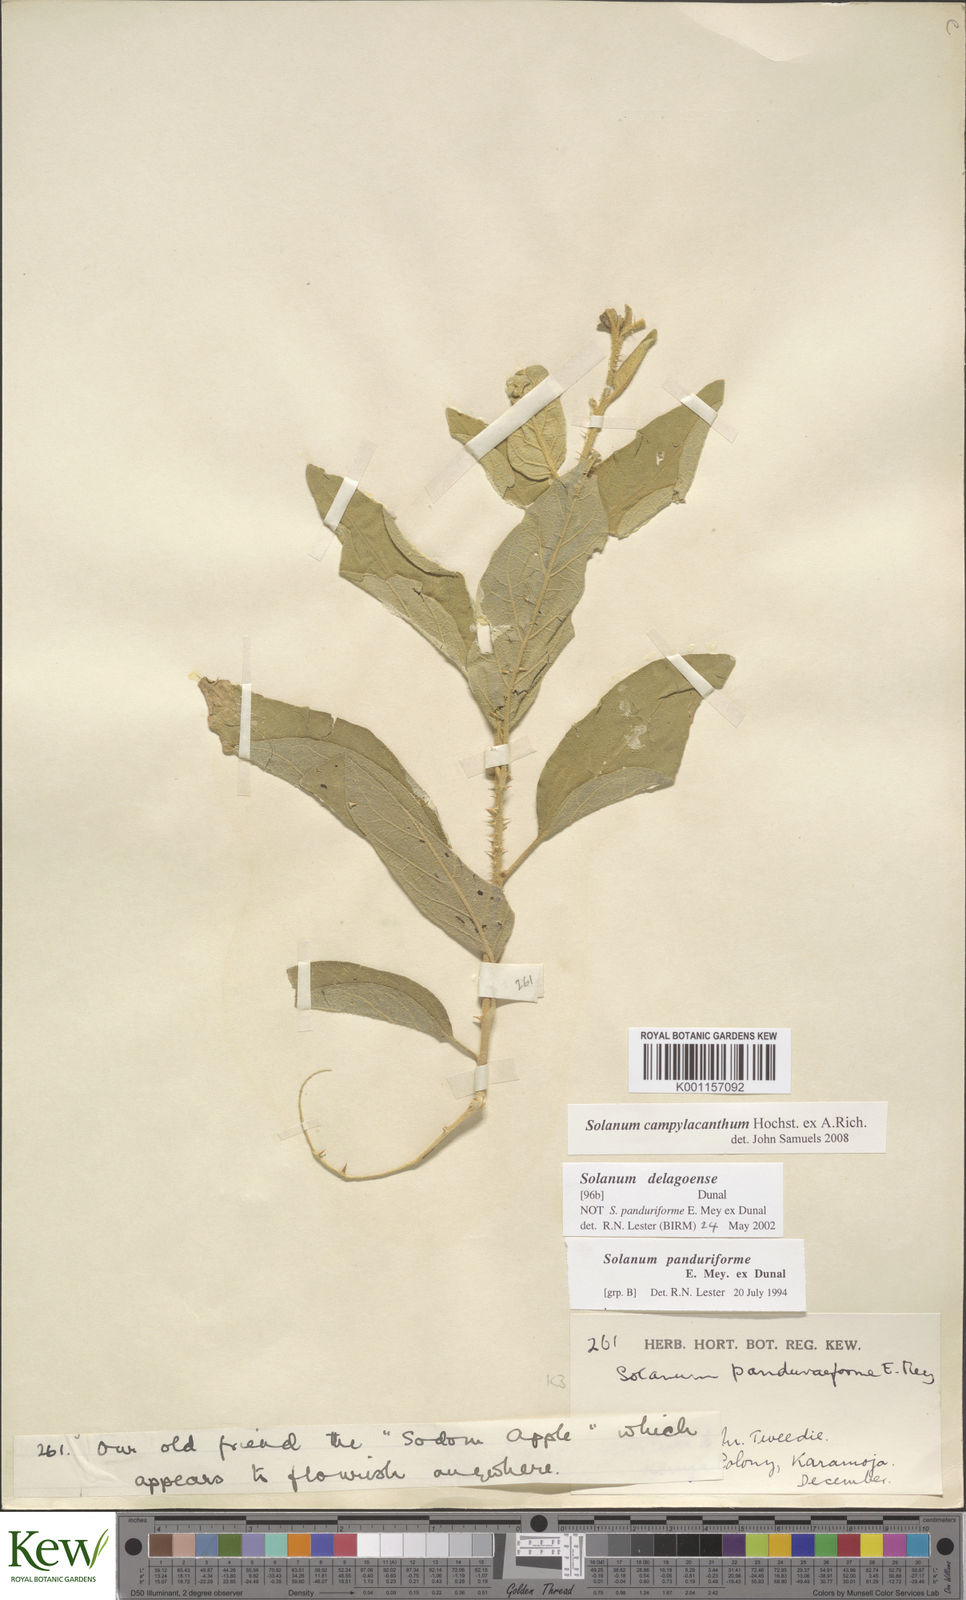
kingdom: Plantae
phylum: Tracheophyta
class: Magnoliopsida
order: Solanales
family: Solanaceae
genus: Solanum
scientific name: Solanum campylacanthum
